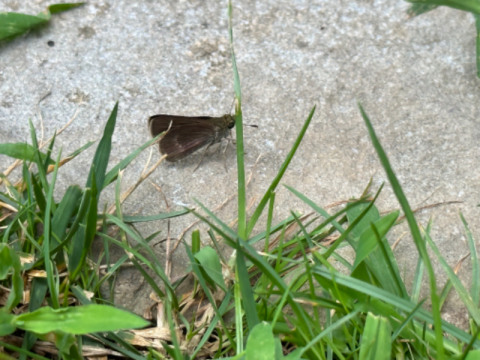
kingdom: Animalia
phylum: Arthropoda
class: Insecta
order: Lepidoptera
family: Hesperiidae
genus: Vernia
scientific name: Vernia verna
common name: Little Glassywing
